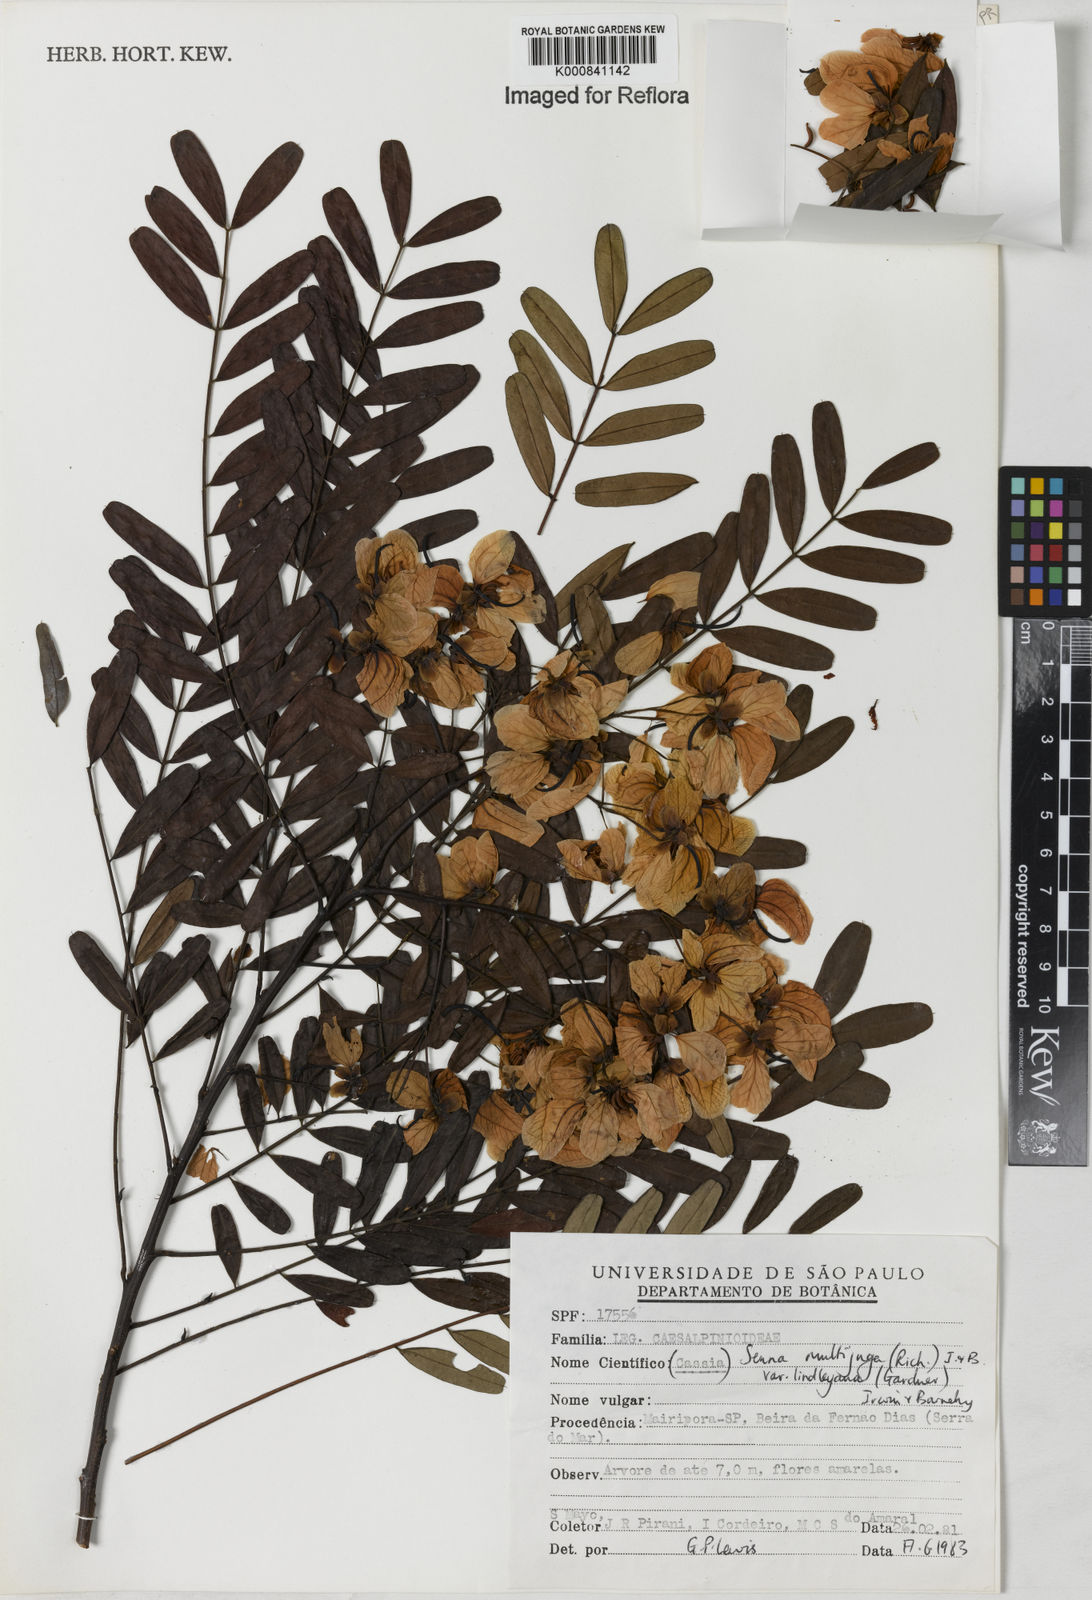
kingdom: Plantae
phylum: Tracheophyta
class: Magnoliopsida
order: Fabales
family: Fabaceae
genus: Senna
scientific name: Senna multijuga
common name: False sicklepod
